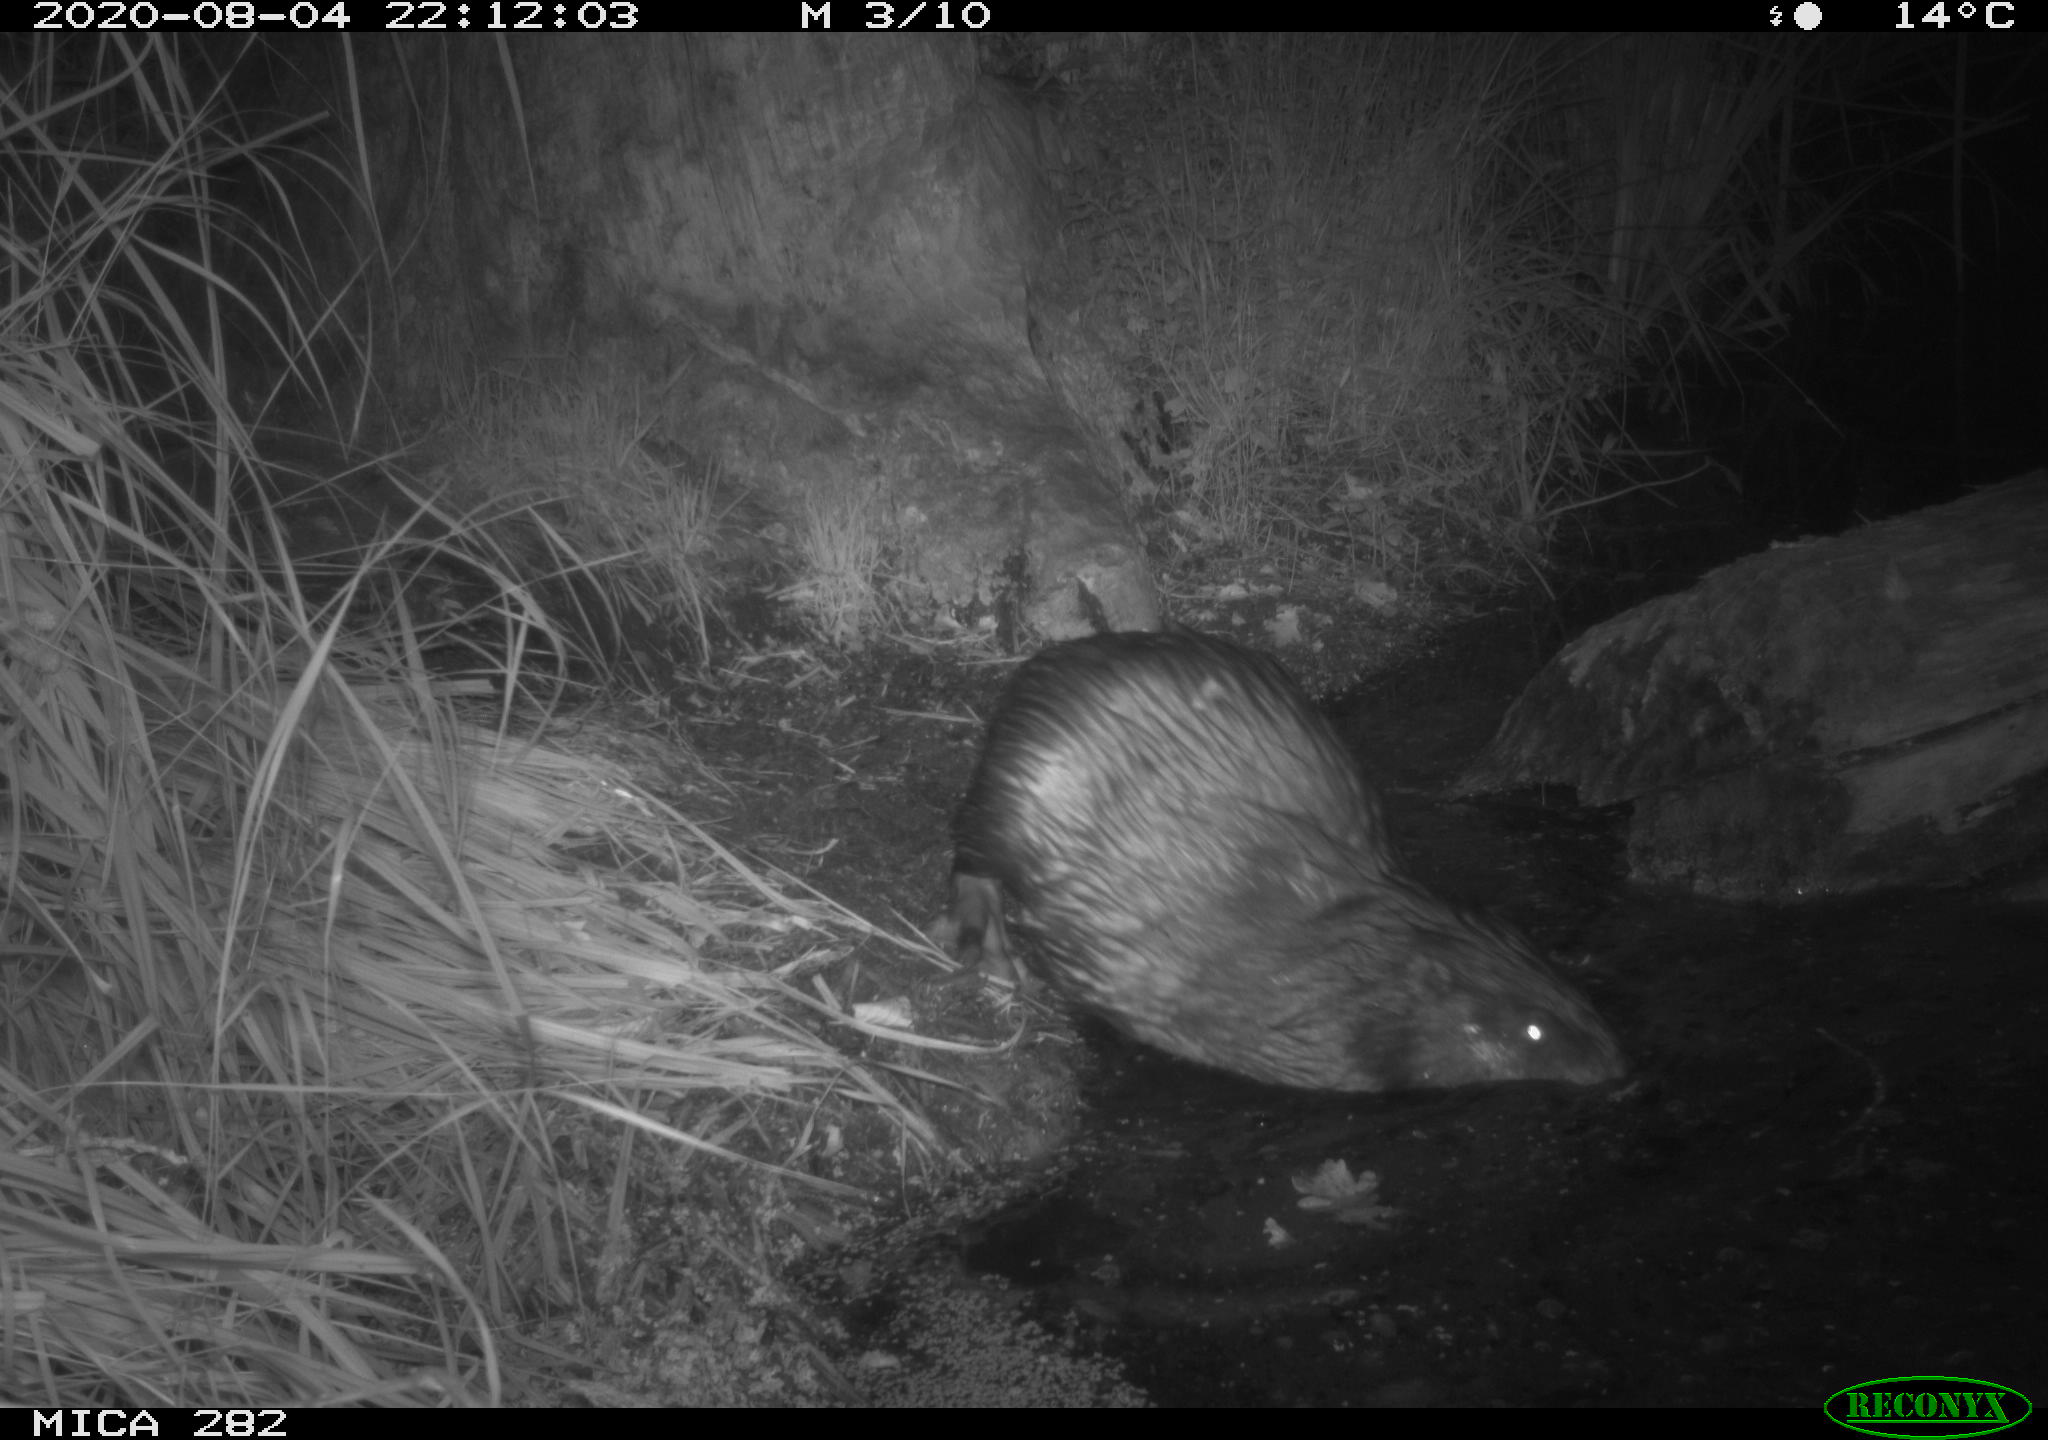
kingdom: Animalia
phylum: Chordata
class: Mammalia
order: Rodentia
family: Castoridae
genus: Castor
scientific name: Castor fiber
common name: Eurasian beaver
